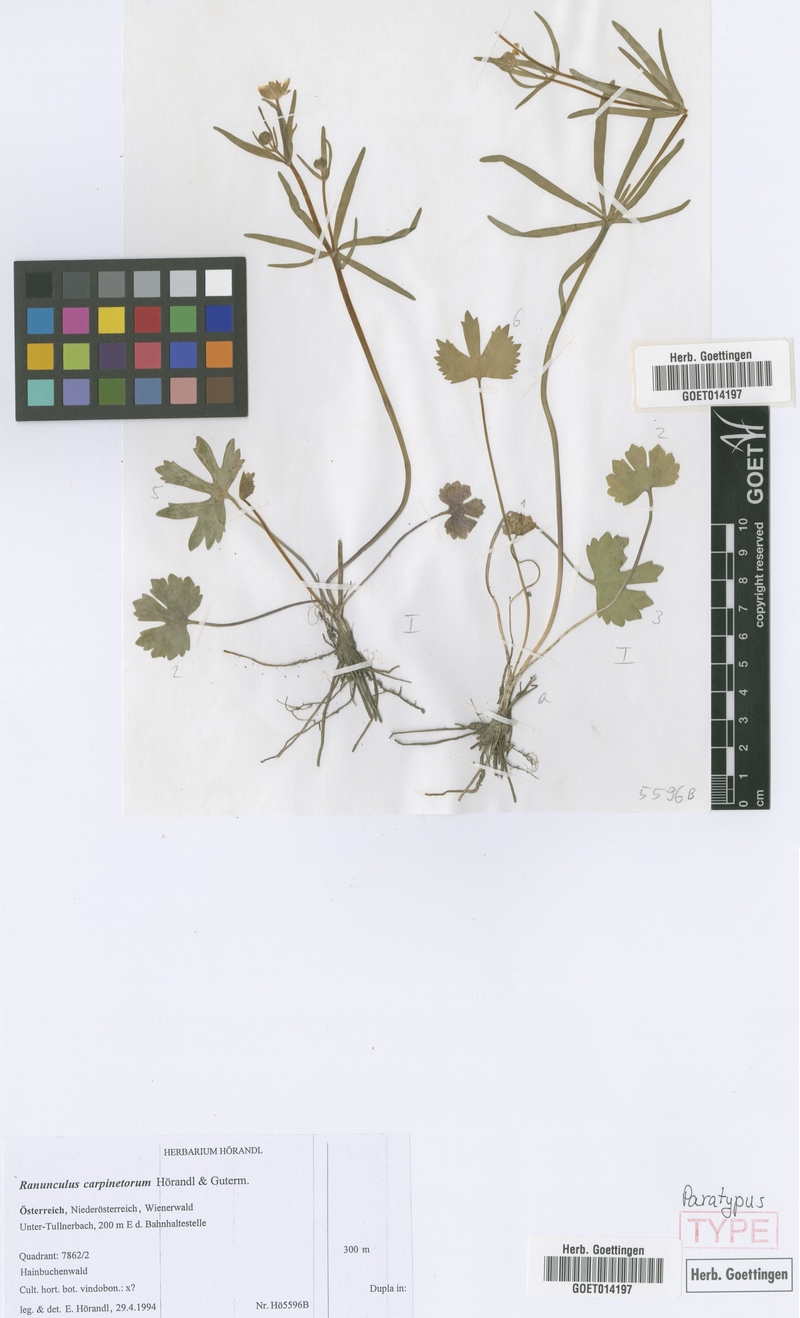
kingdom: Plantae
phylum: Tracheophyta
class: Magnoliopsida
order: Ranunculales
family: Ranunculaceae
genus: Ranunculus
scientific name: Ranunculus carpinetorum
